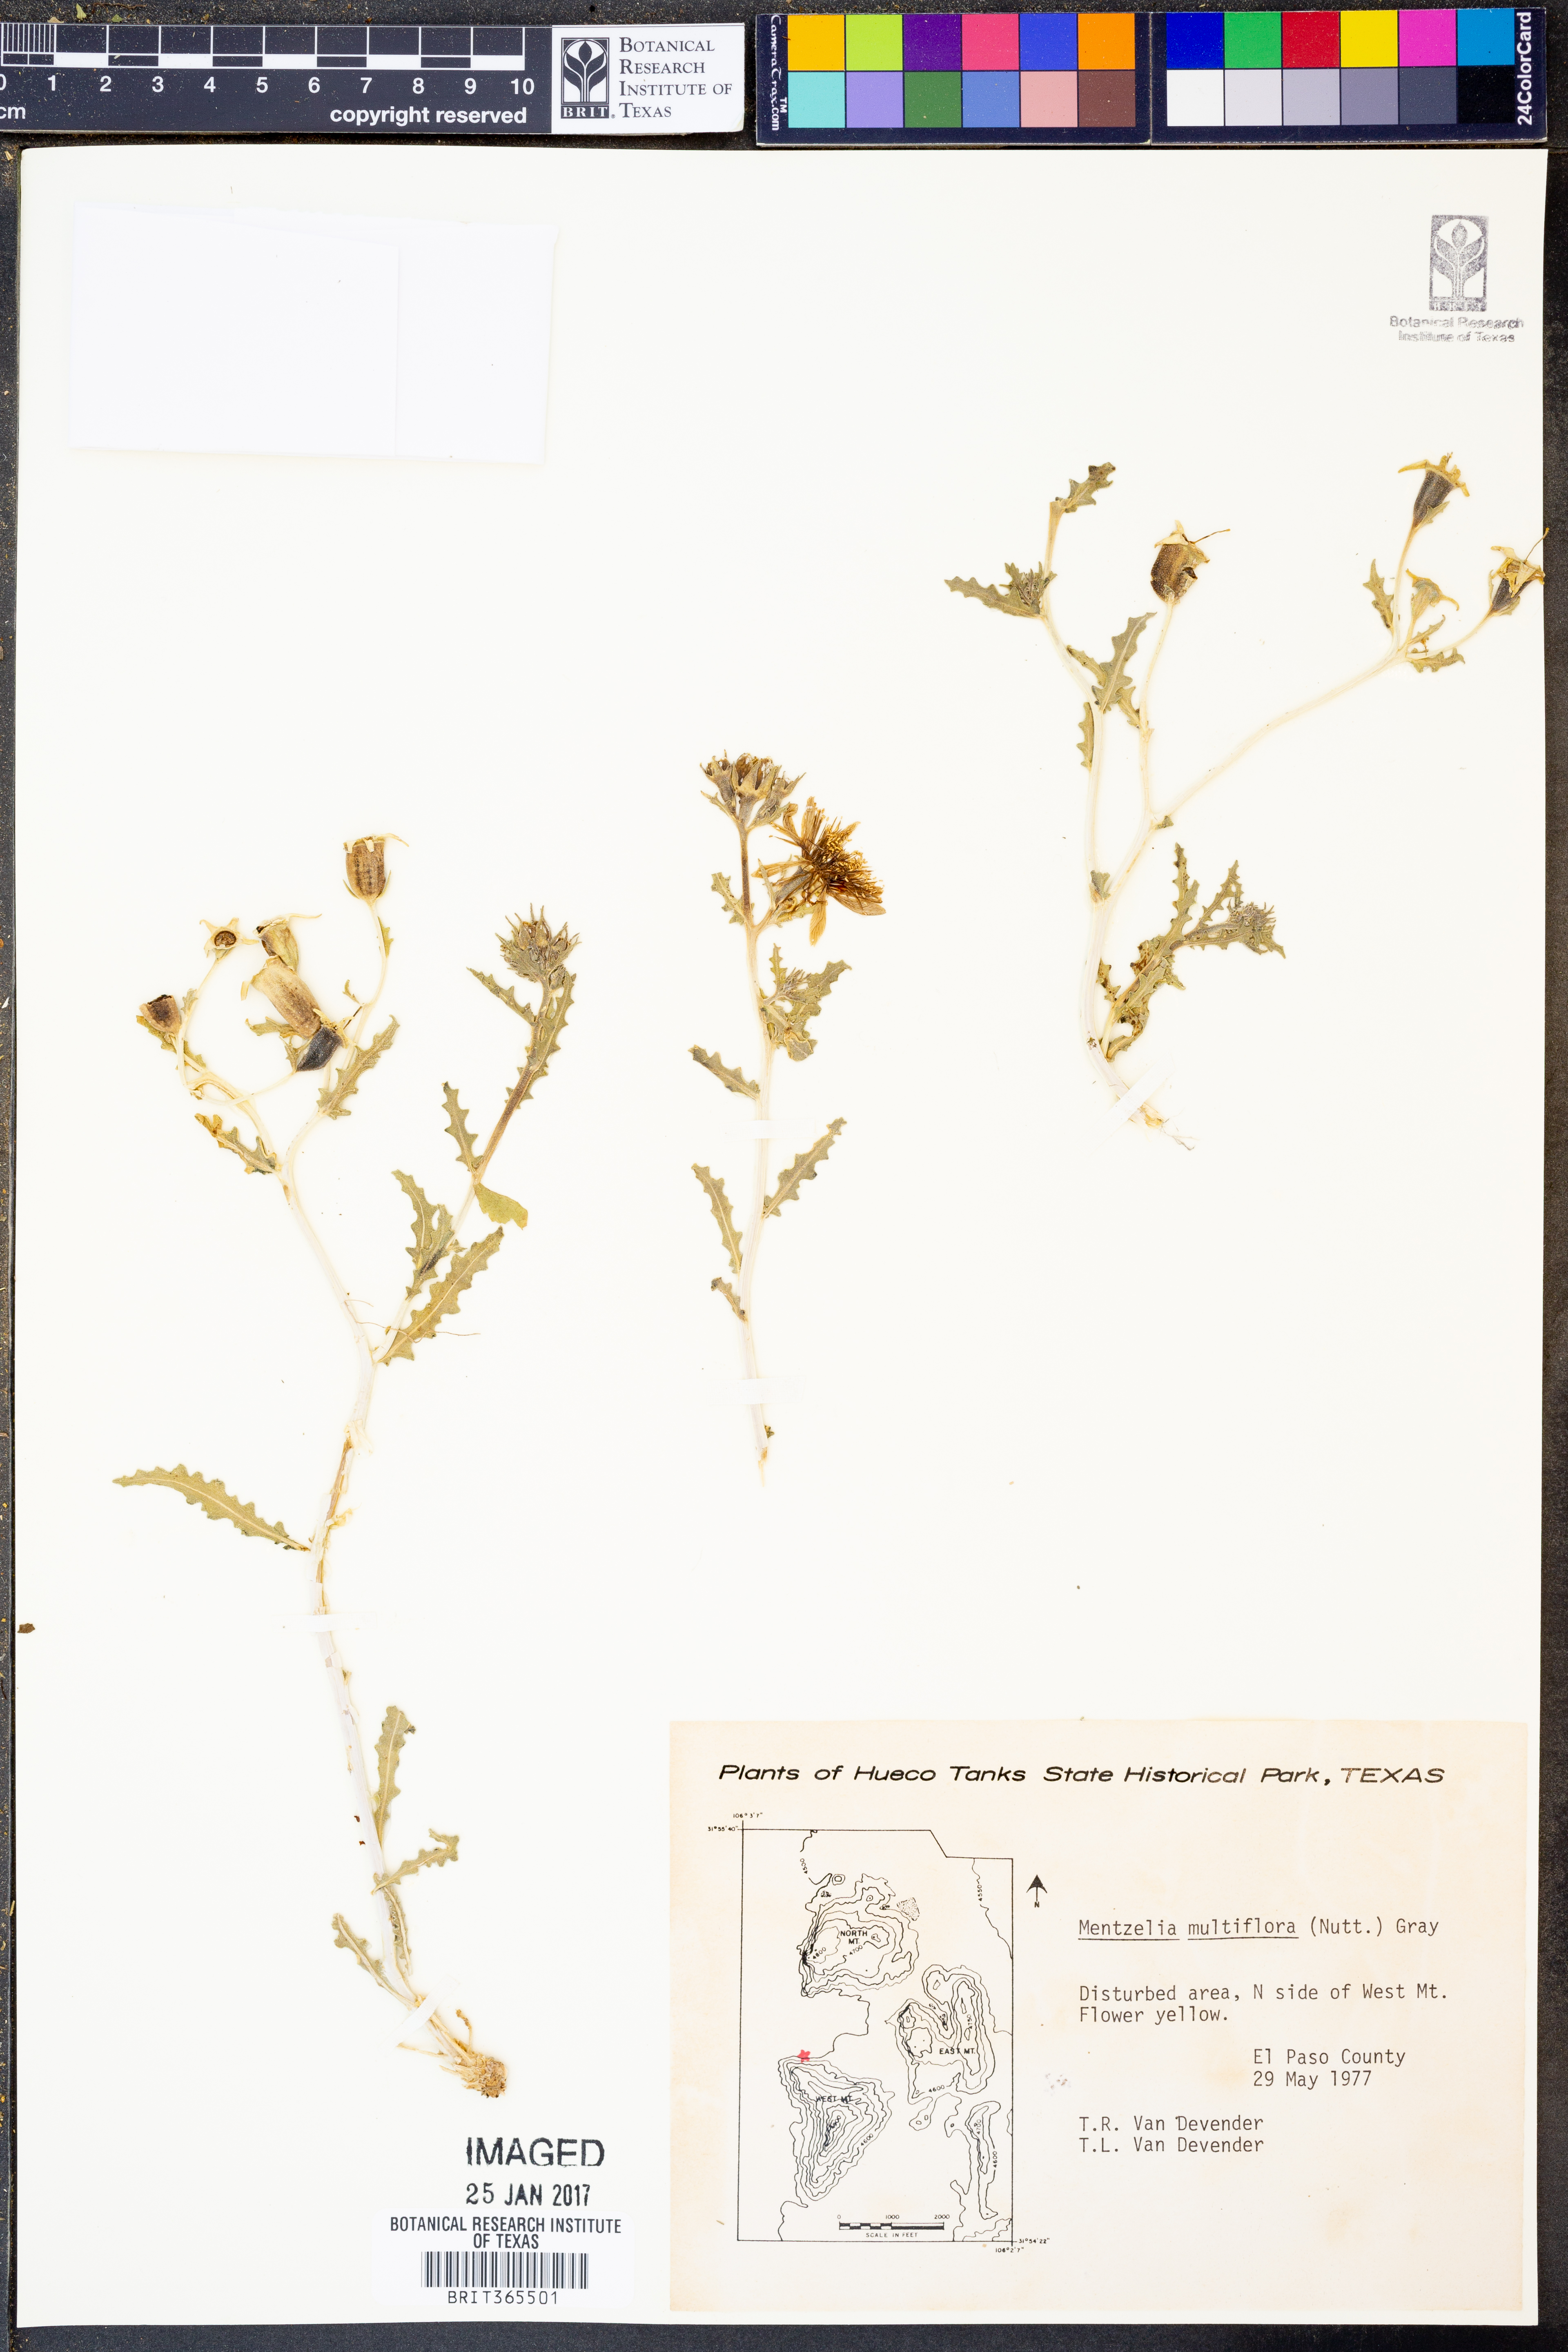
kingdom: Plantae
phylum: Tracheophyta
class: Magnoliopsida
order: Cornales
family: Loasaceae
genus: Mentzelia
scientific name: Mentzelia multiflora
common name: Adonis blazingstar
